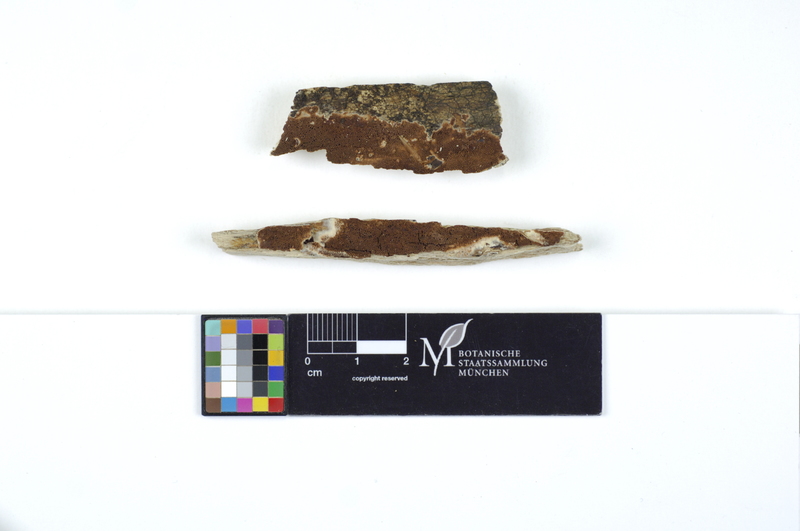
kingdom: Fungi
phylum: Basidiomycota
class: Agaricomycetes
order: Polyporales
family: Irpicaceae
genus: Ceriporia
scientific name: Ceriporia purpurea
